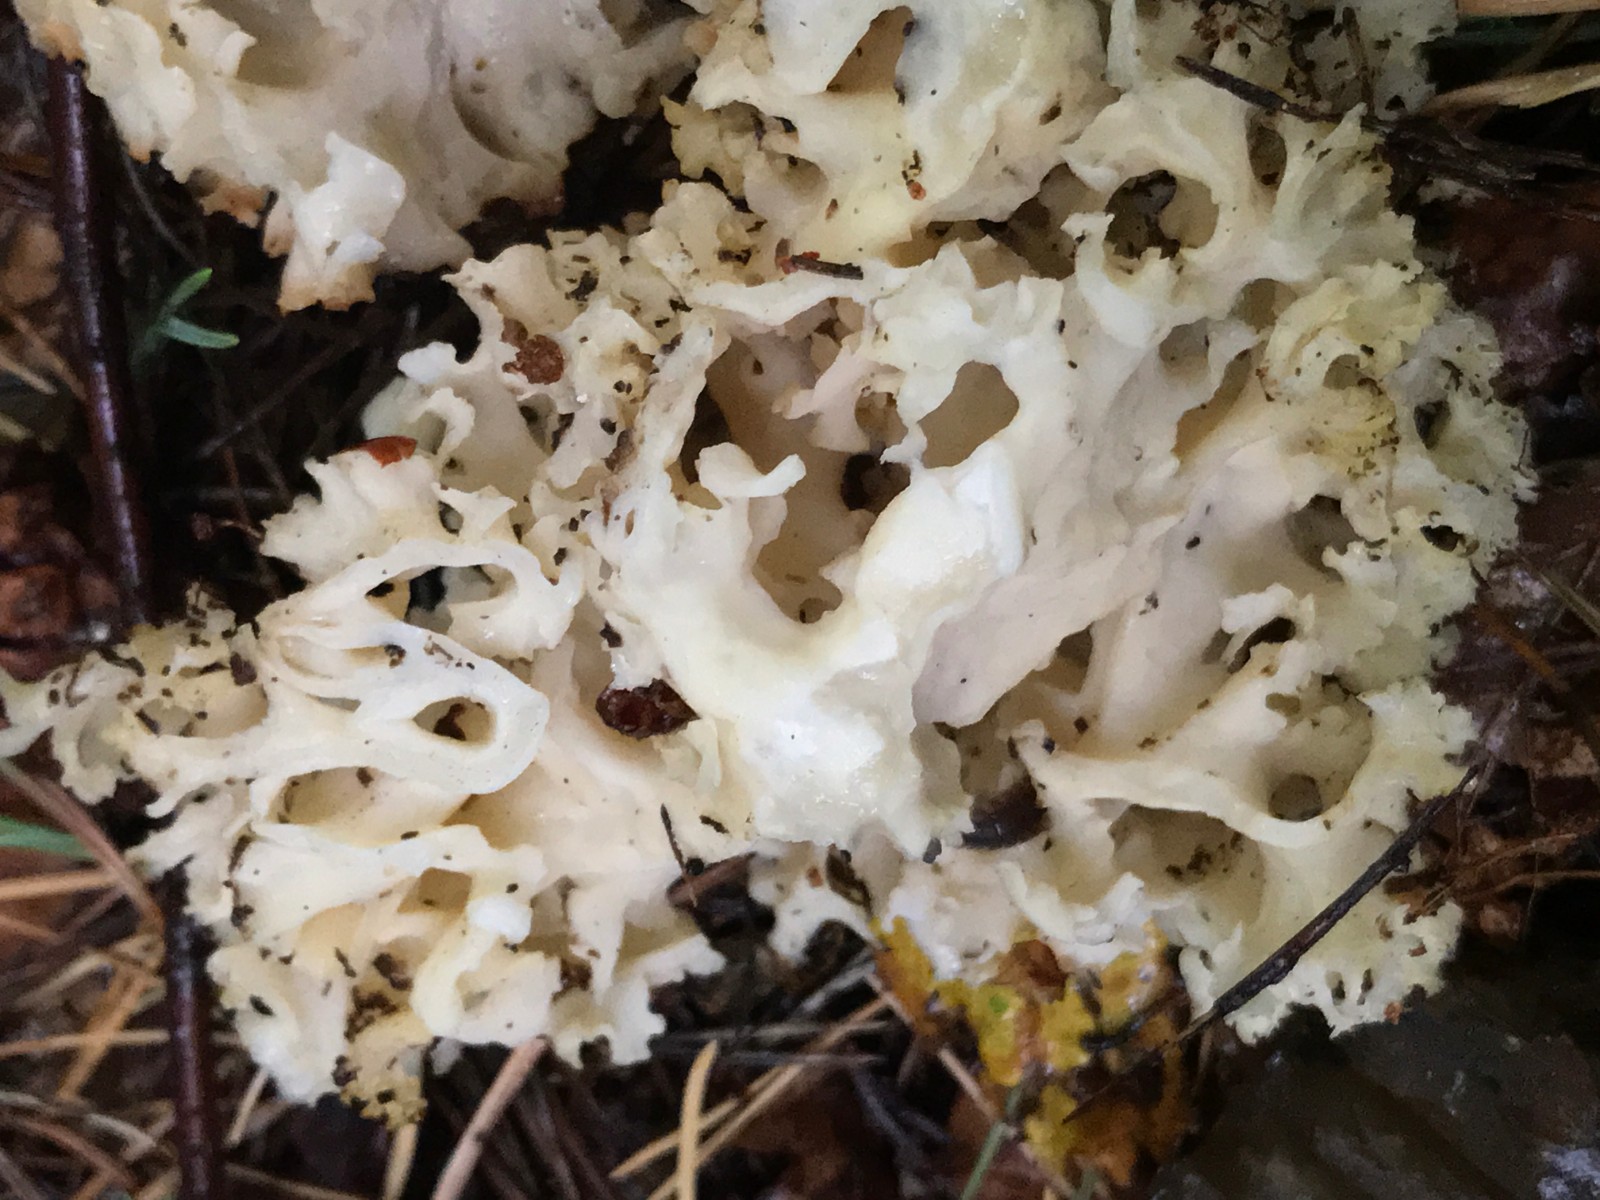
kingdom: Fungi
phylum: Basidiomycota
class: Agaricomycetes
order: Polyporales
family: Sparassidaceae
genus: Sparassis
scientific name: Sparassis crispa
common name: kruset blomkålssvamp
